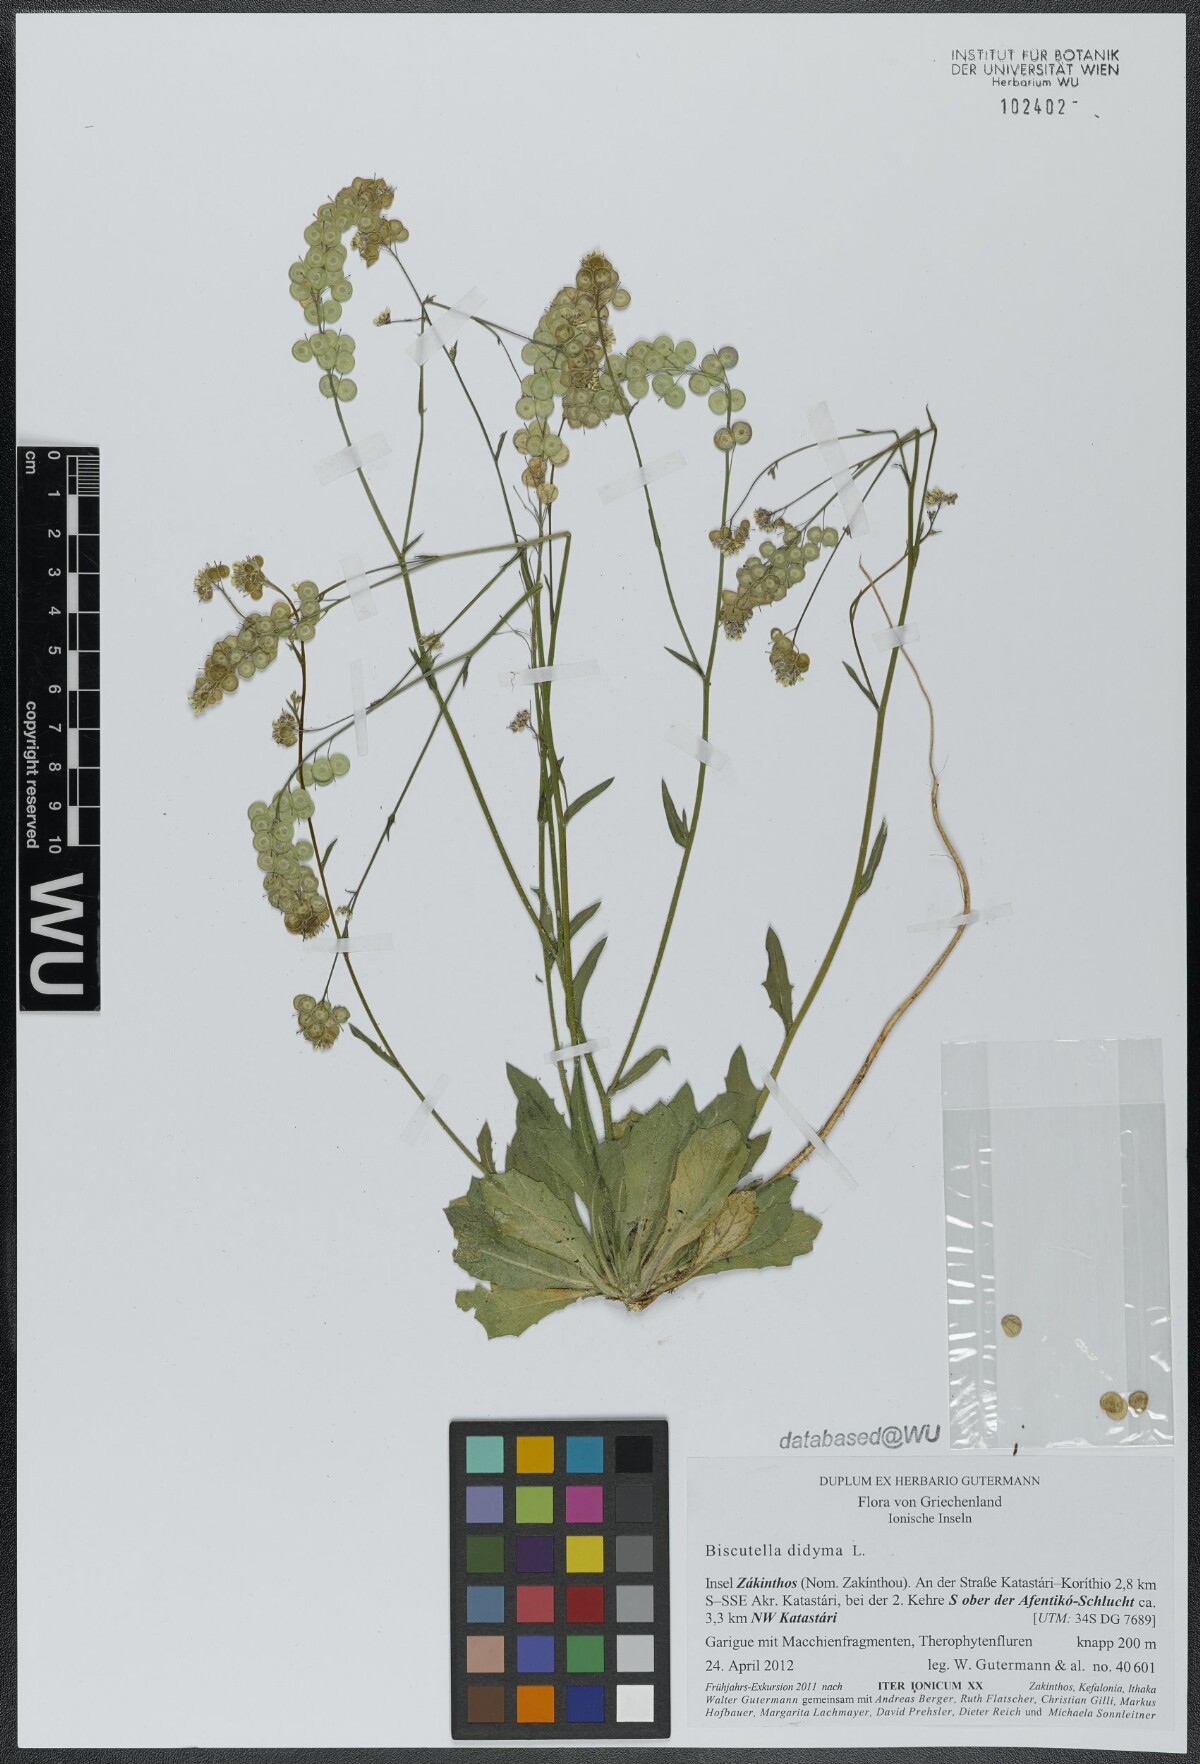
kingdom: Plantae
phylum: Tracheophyta
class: Magnoliopsida
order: Brassicales
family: Brassicaceae
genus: Biscutella
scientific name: Biscutella didyma
